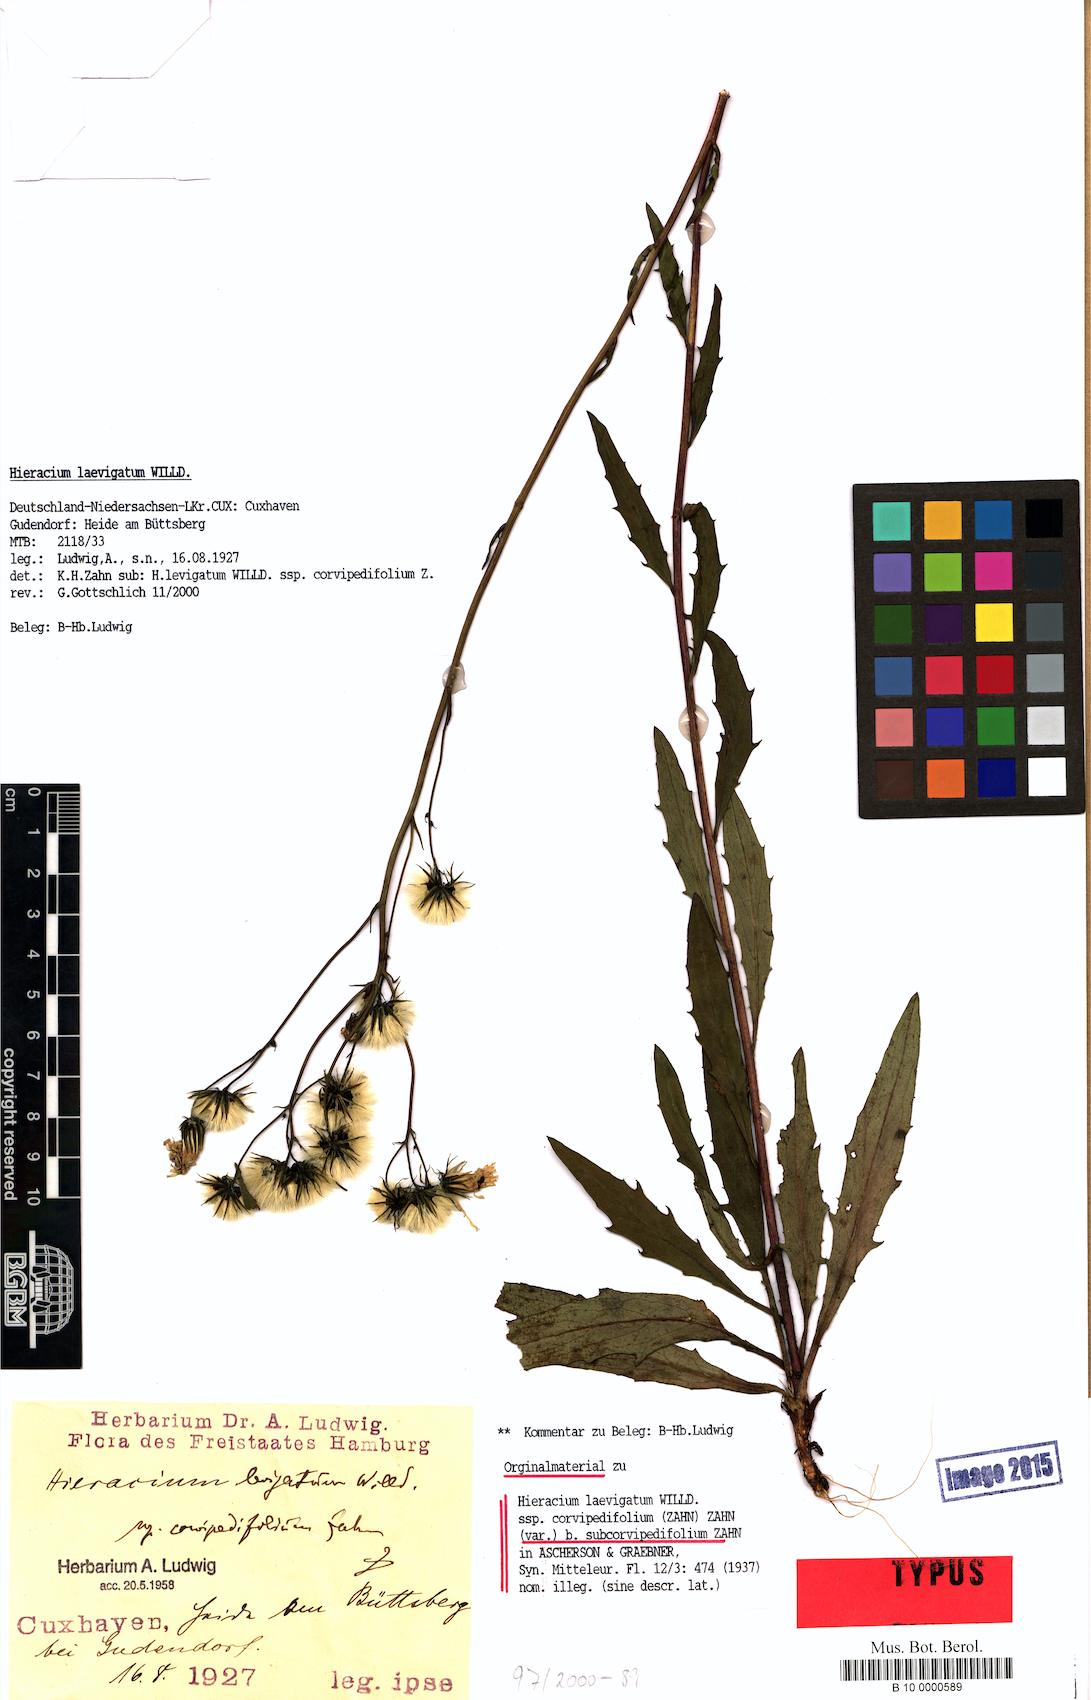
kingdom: Plantae
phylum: Tracheophyta
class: Magnoliopsida
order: Asterales
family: Asteraceae
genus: Hieracium
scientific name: Hieracium
